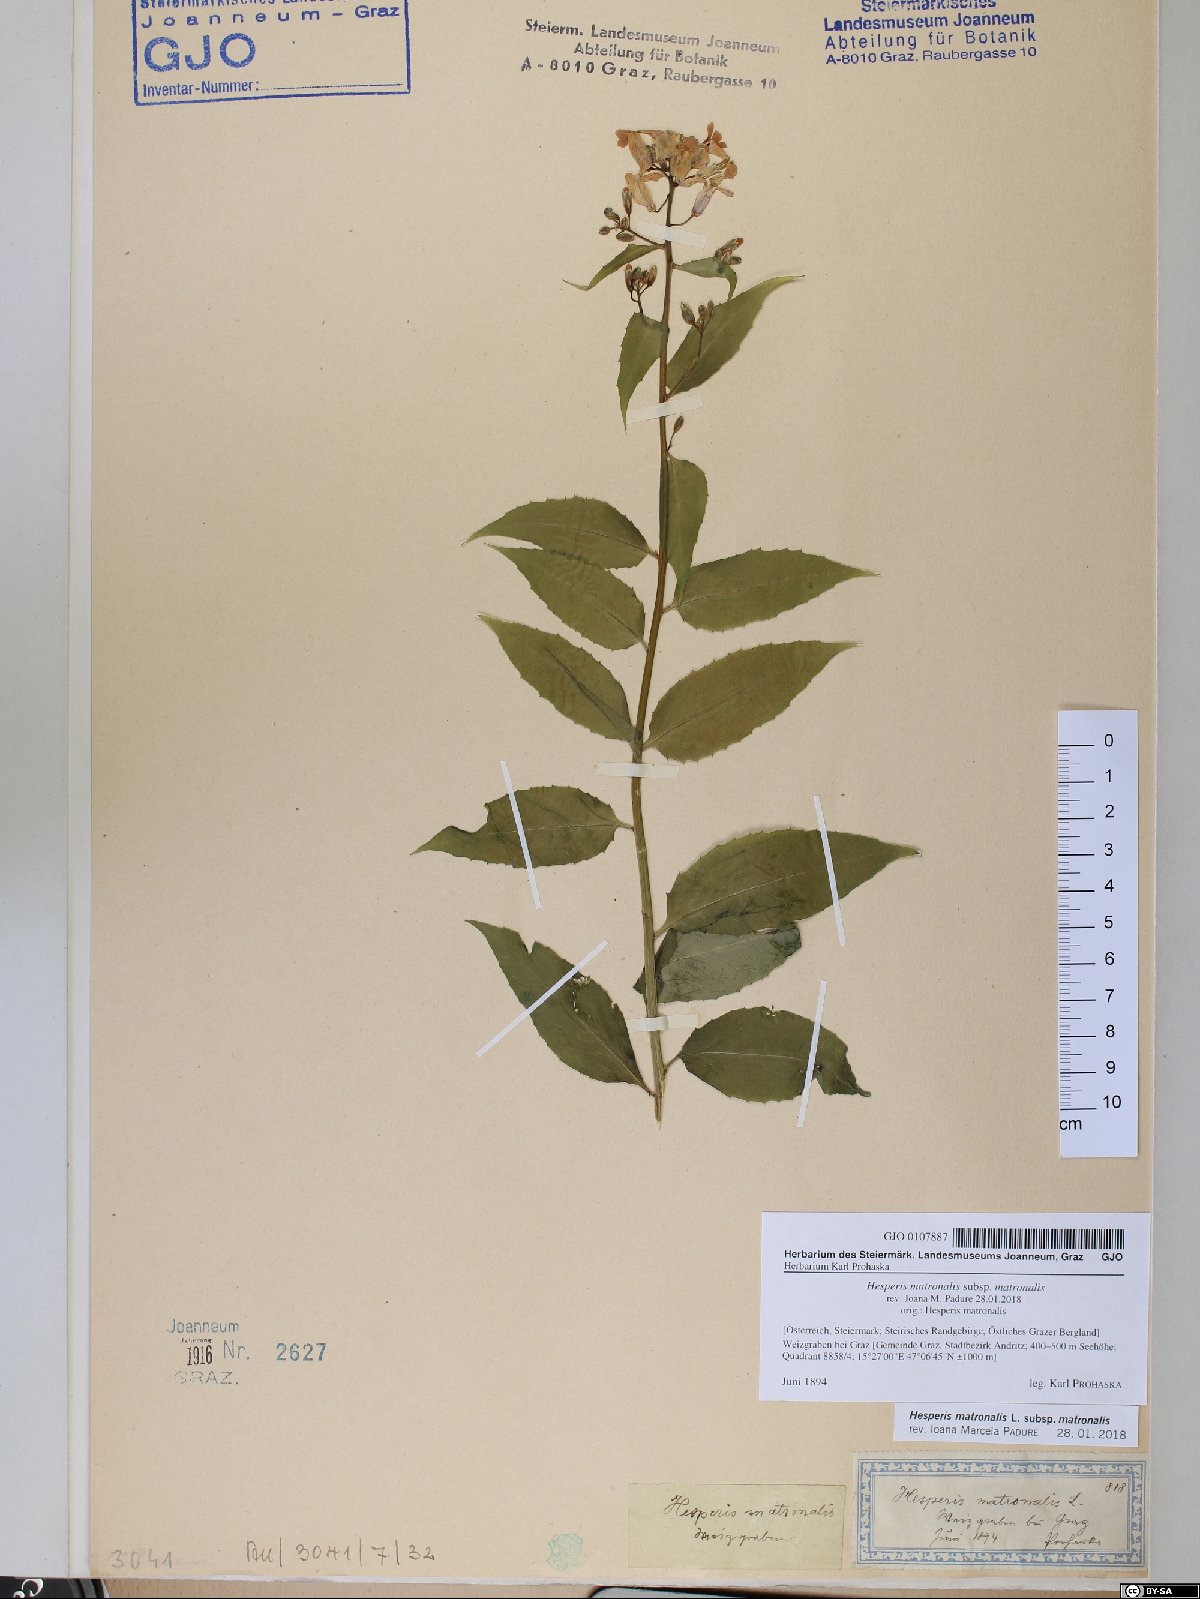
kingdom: Plantae
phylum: Tracheophyta
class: Magnoliopsida
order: Brassicales
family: Brassicaceae
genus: Hesperis
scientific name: Hesperis matronalis
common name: Dame's-violet
